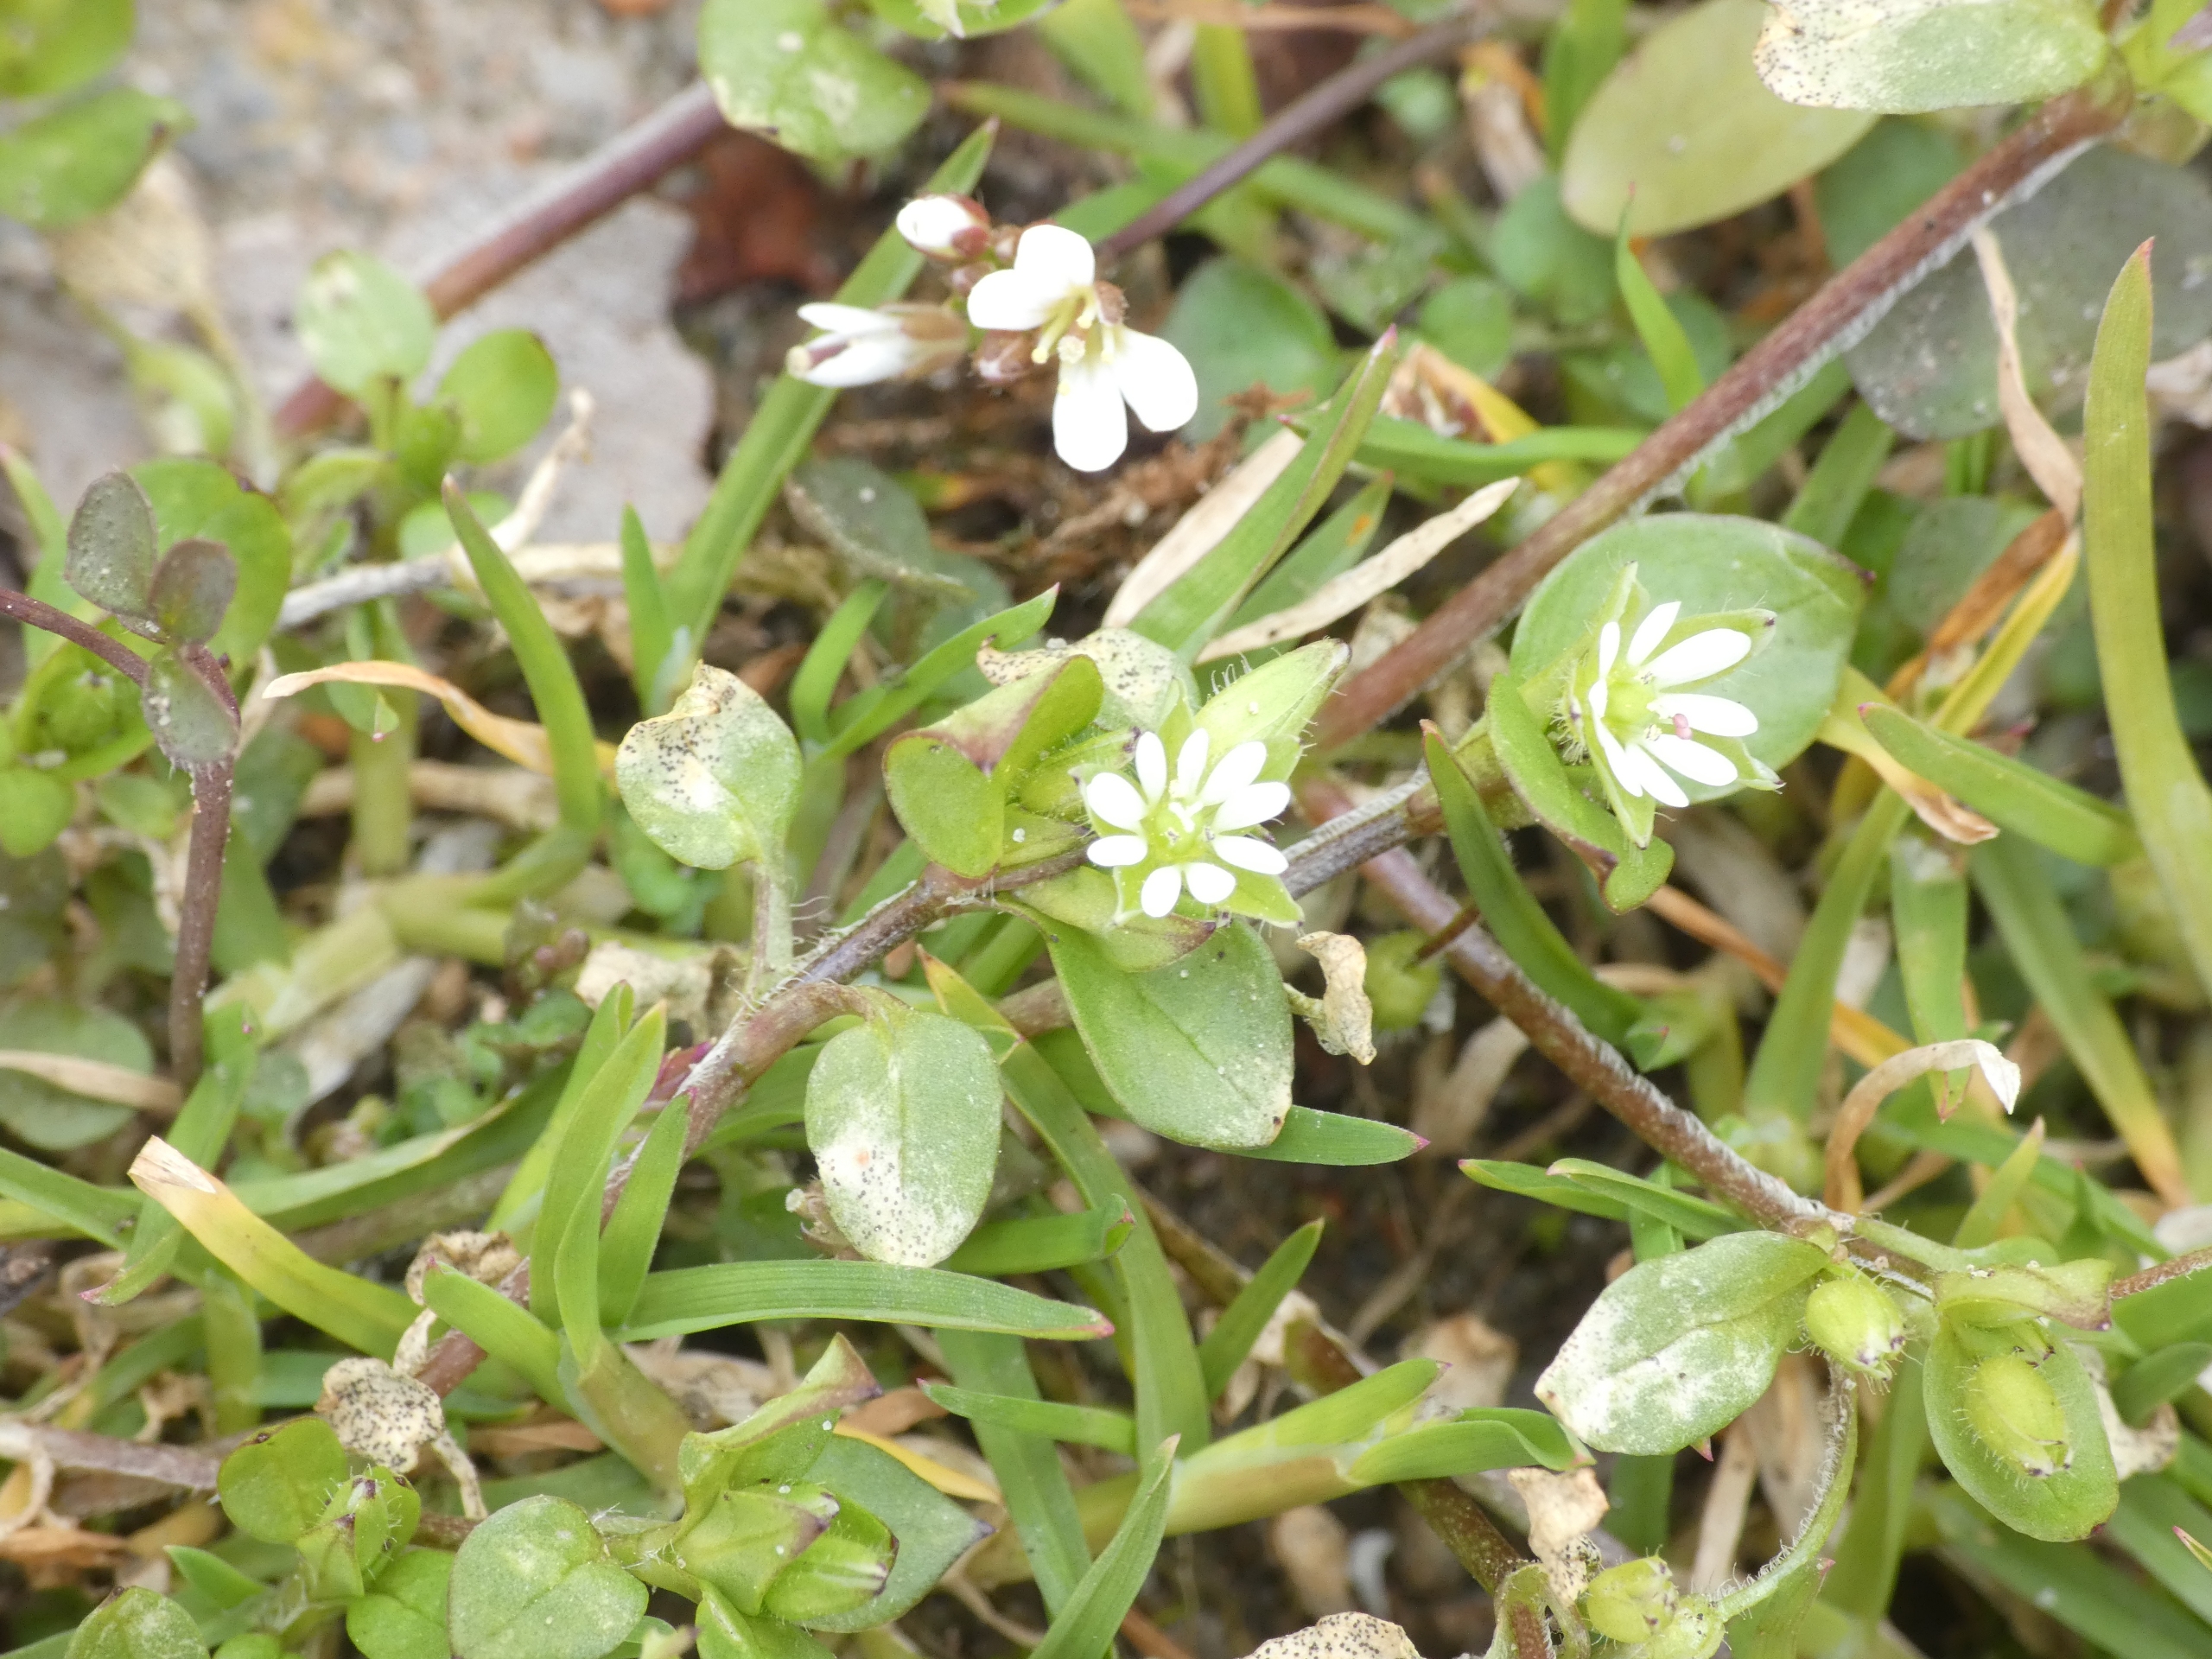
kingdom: Plantae
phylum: Tracheophyta
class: Magnoliopsida
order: Caryophyllales
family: Caryophyllaceae
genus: Stellaria
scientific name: Stellaria media
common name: Almindelig fuglegræs
